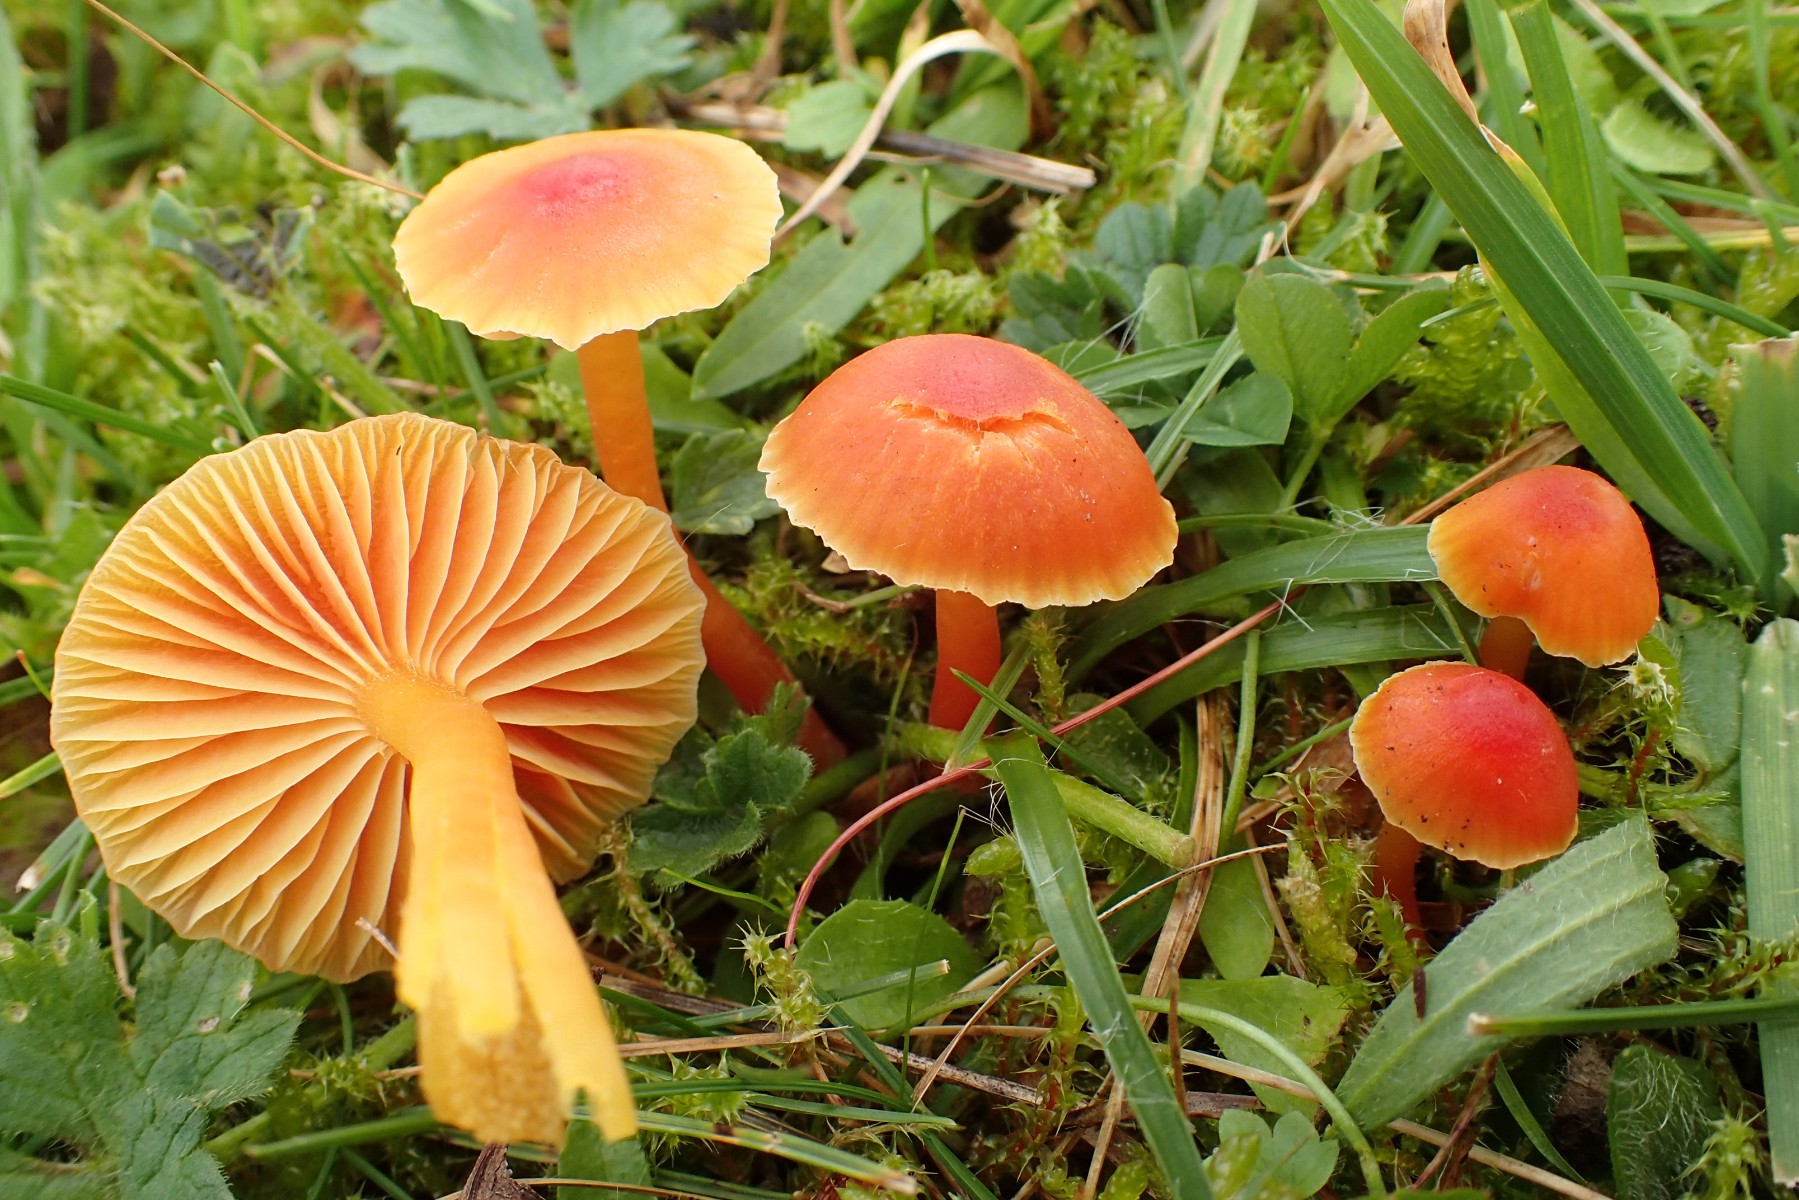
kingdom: Fungi
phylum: Basidiomycota
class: Agaricomycetes
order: Agaricales
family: Hygrophoraceae
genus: Hygrocybe
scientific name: Hygrocybe mucronella
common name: bitter vokshat
